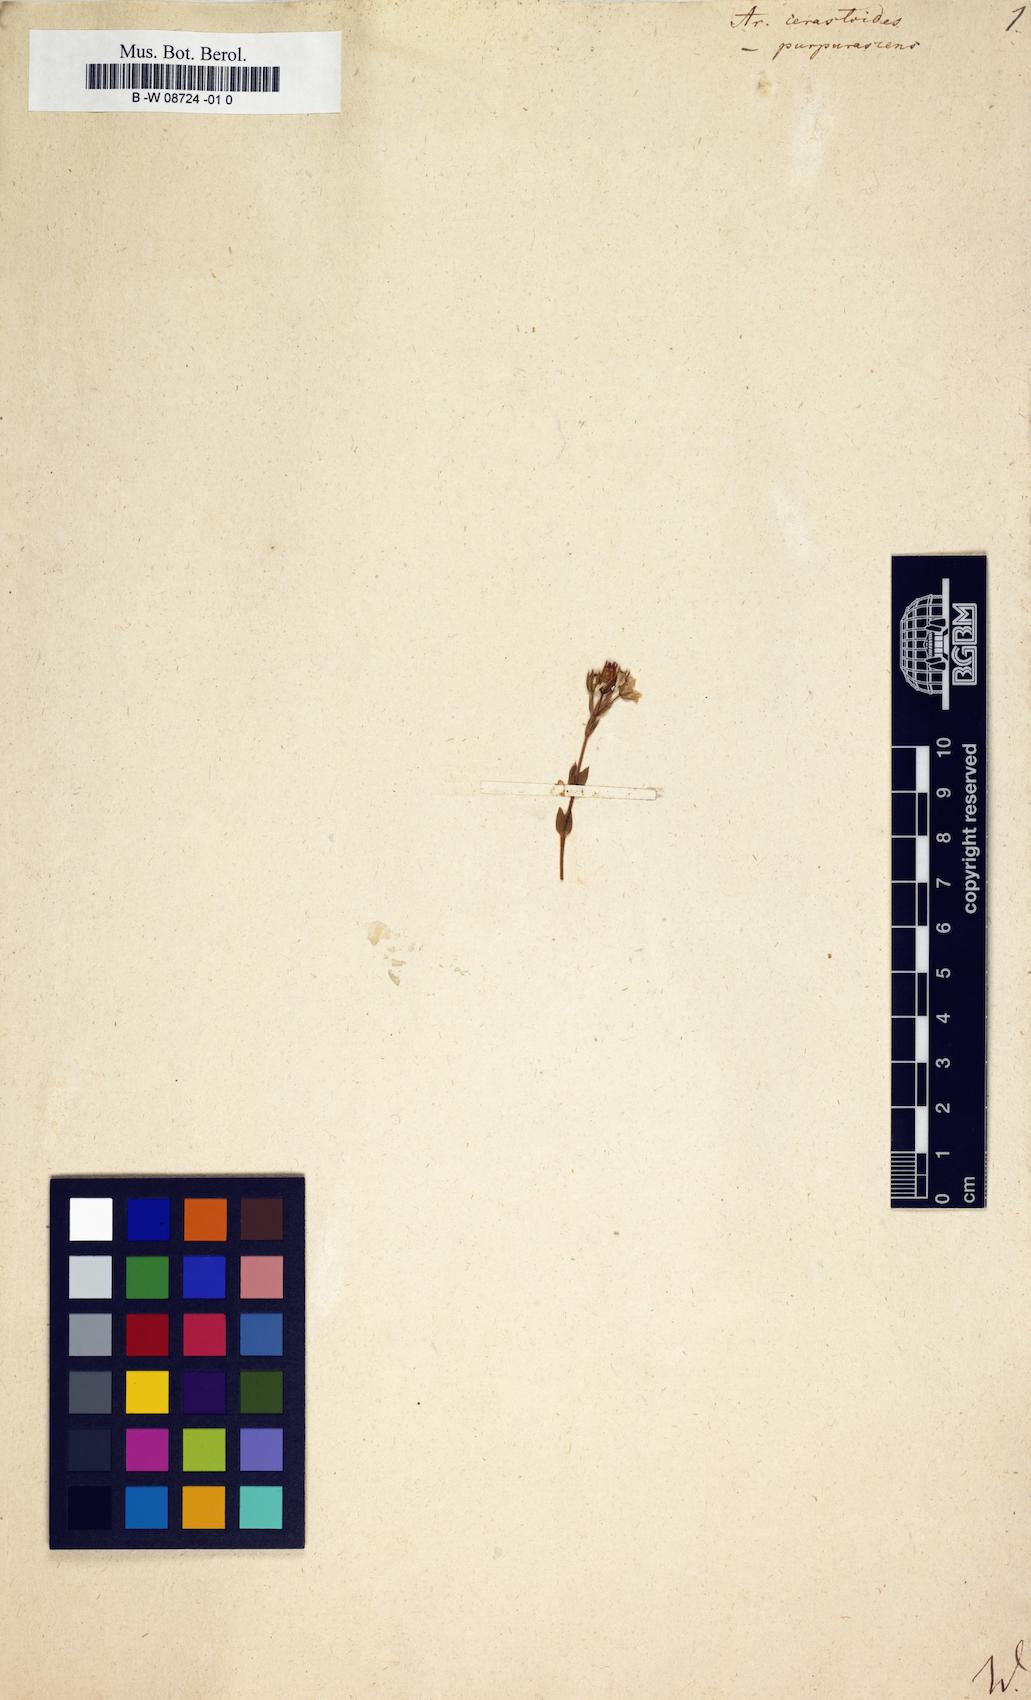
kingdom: Plantae
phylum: Tracheophyta
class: Magnoliopsida
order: Caryophyllales
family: Caryophyllaceae
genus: Arenaria
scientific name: Arenaria cerastioides
